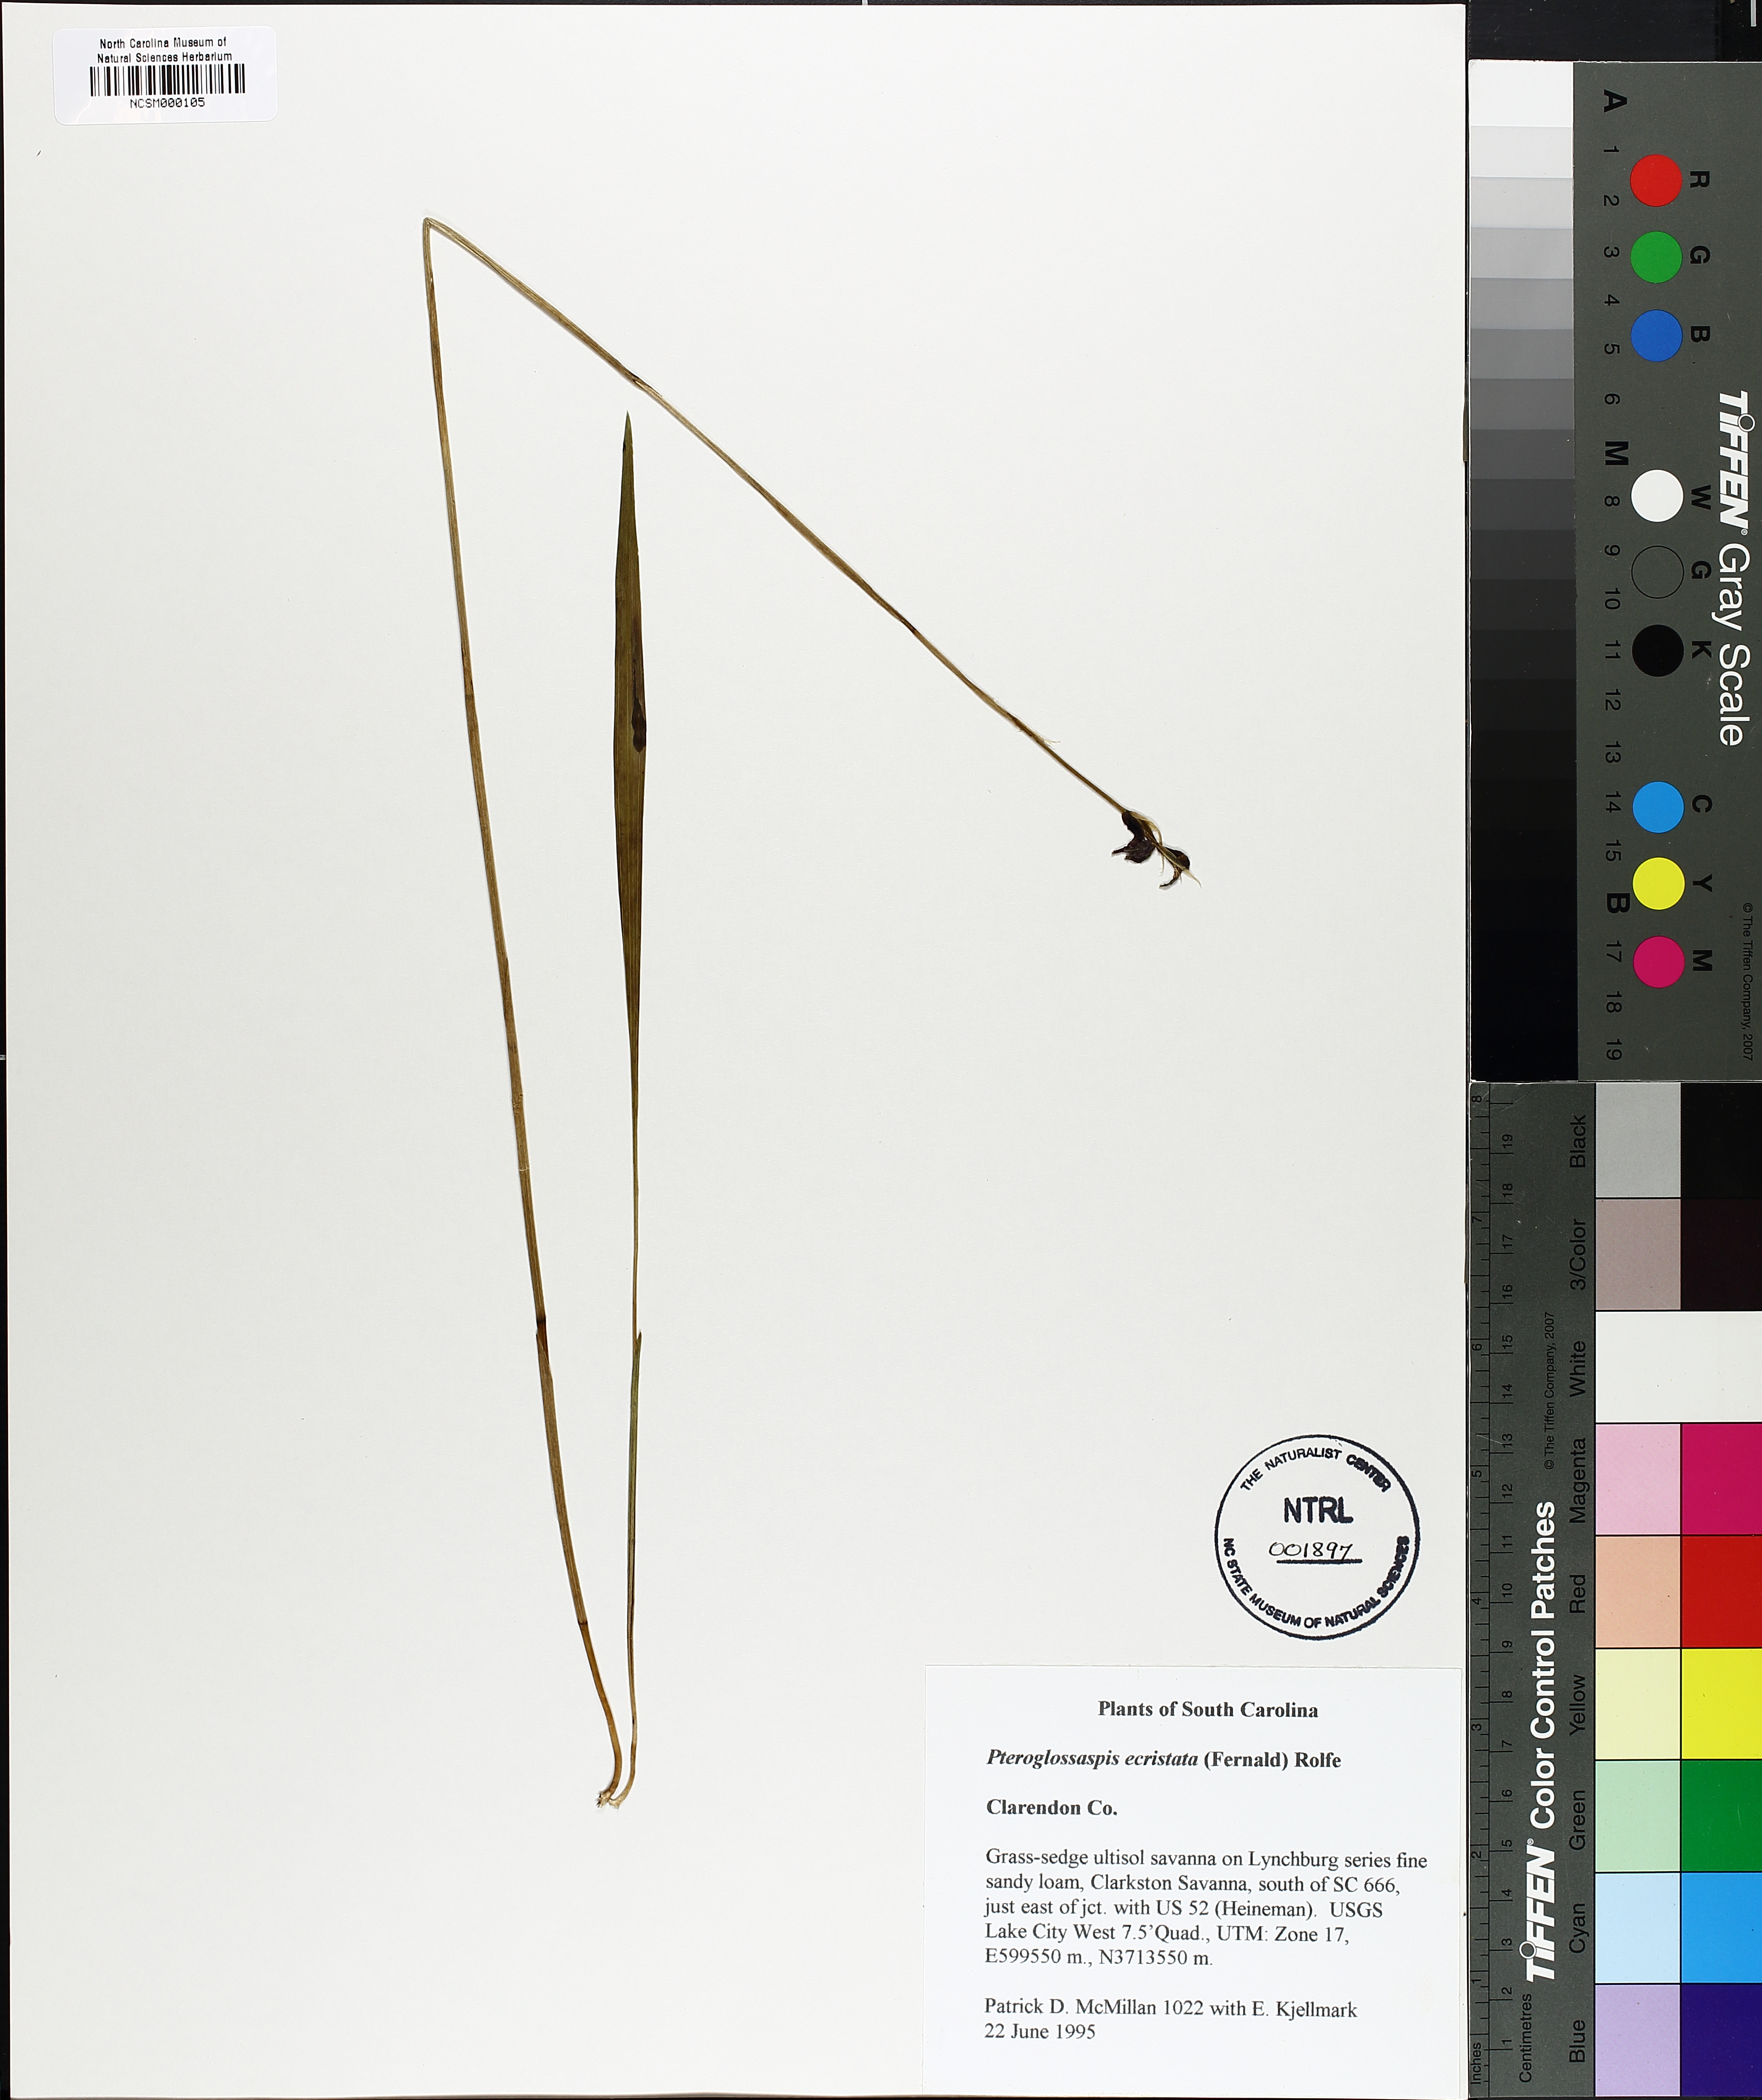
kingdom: Plantae
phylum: Tracheophyta
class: Liliopsida
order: Asparagales
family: Orchidaceae
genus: Eulophia
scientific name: Eulophia ecristata
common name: Giant orchid
